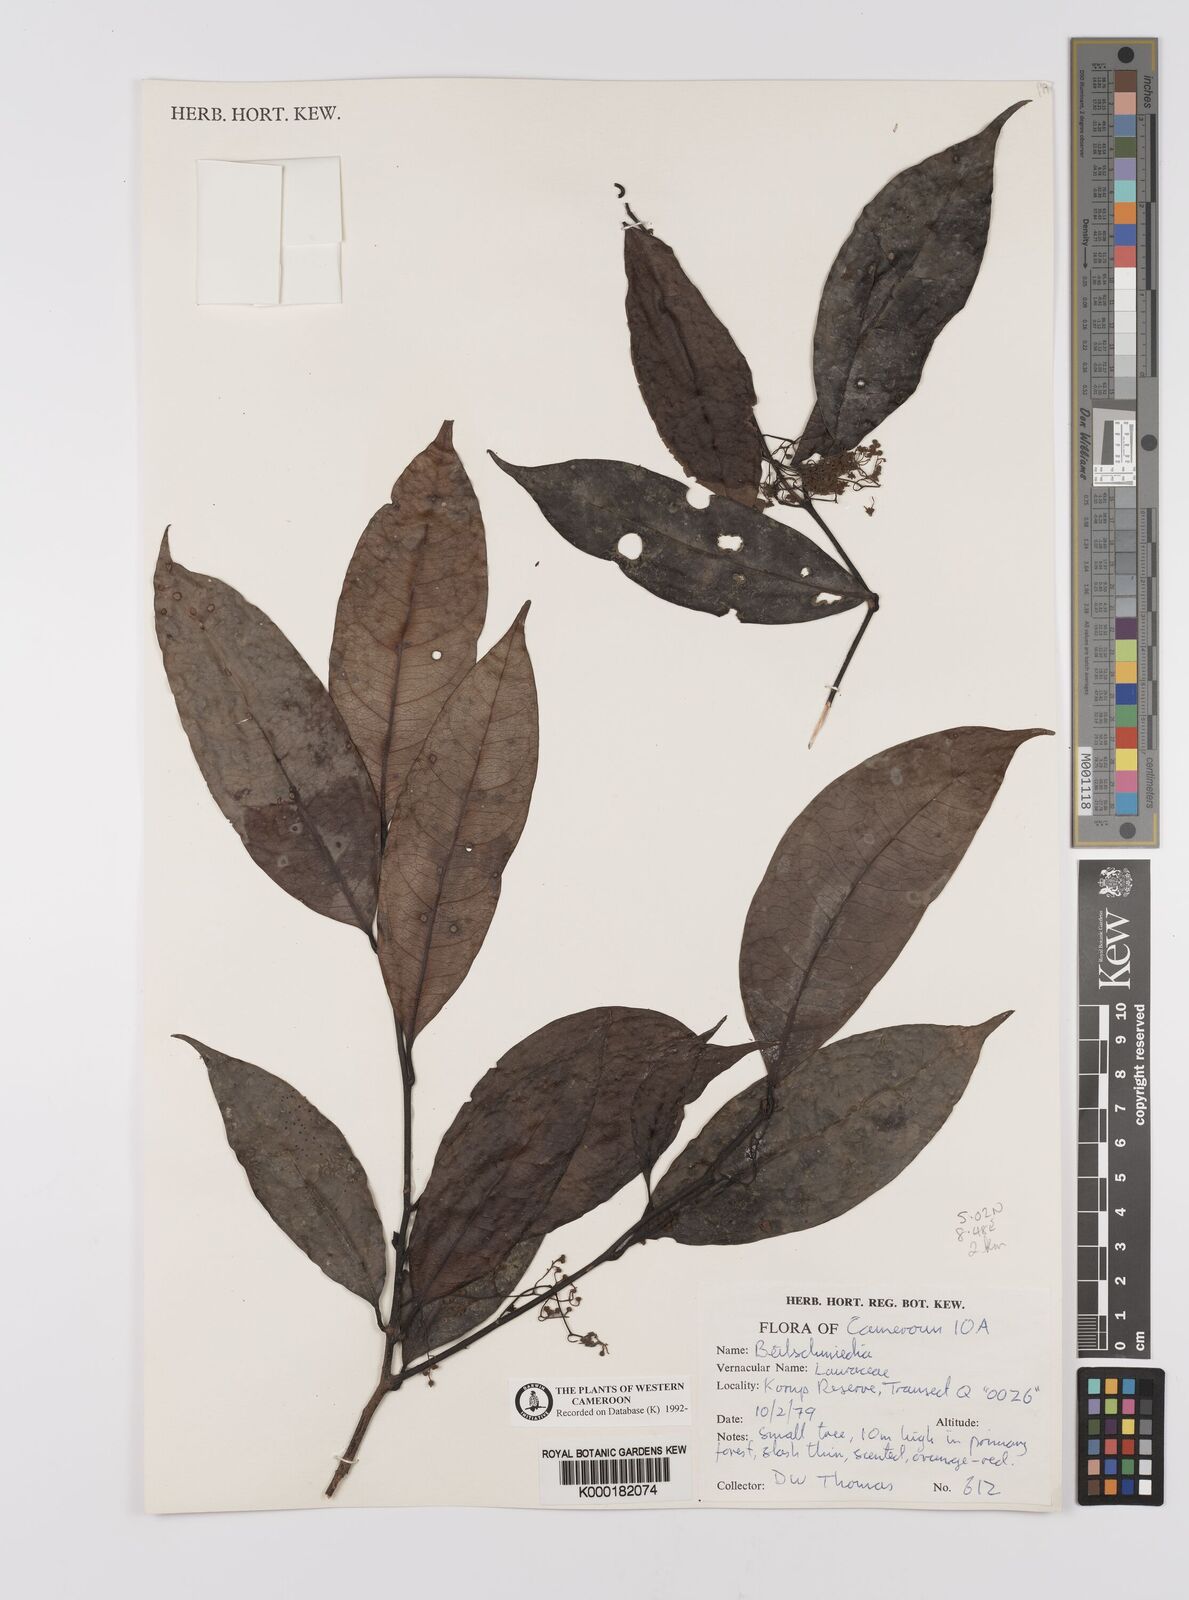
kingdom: Plantae
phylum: Tracheophyta
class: Magnoliopsida
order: Laurales
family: Lauraceae
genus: Beilschmiedia
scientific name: Beilschmiedia
